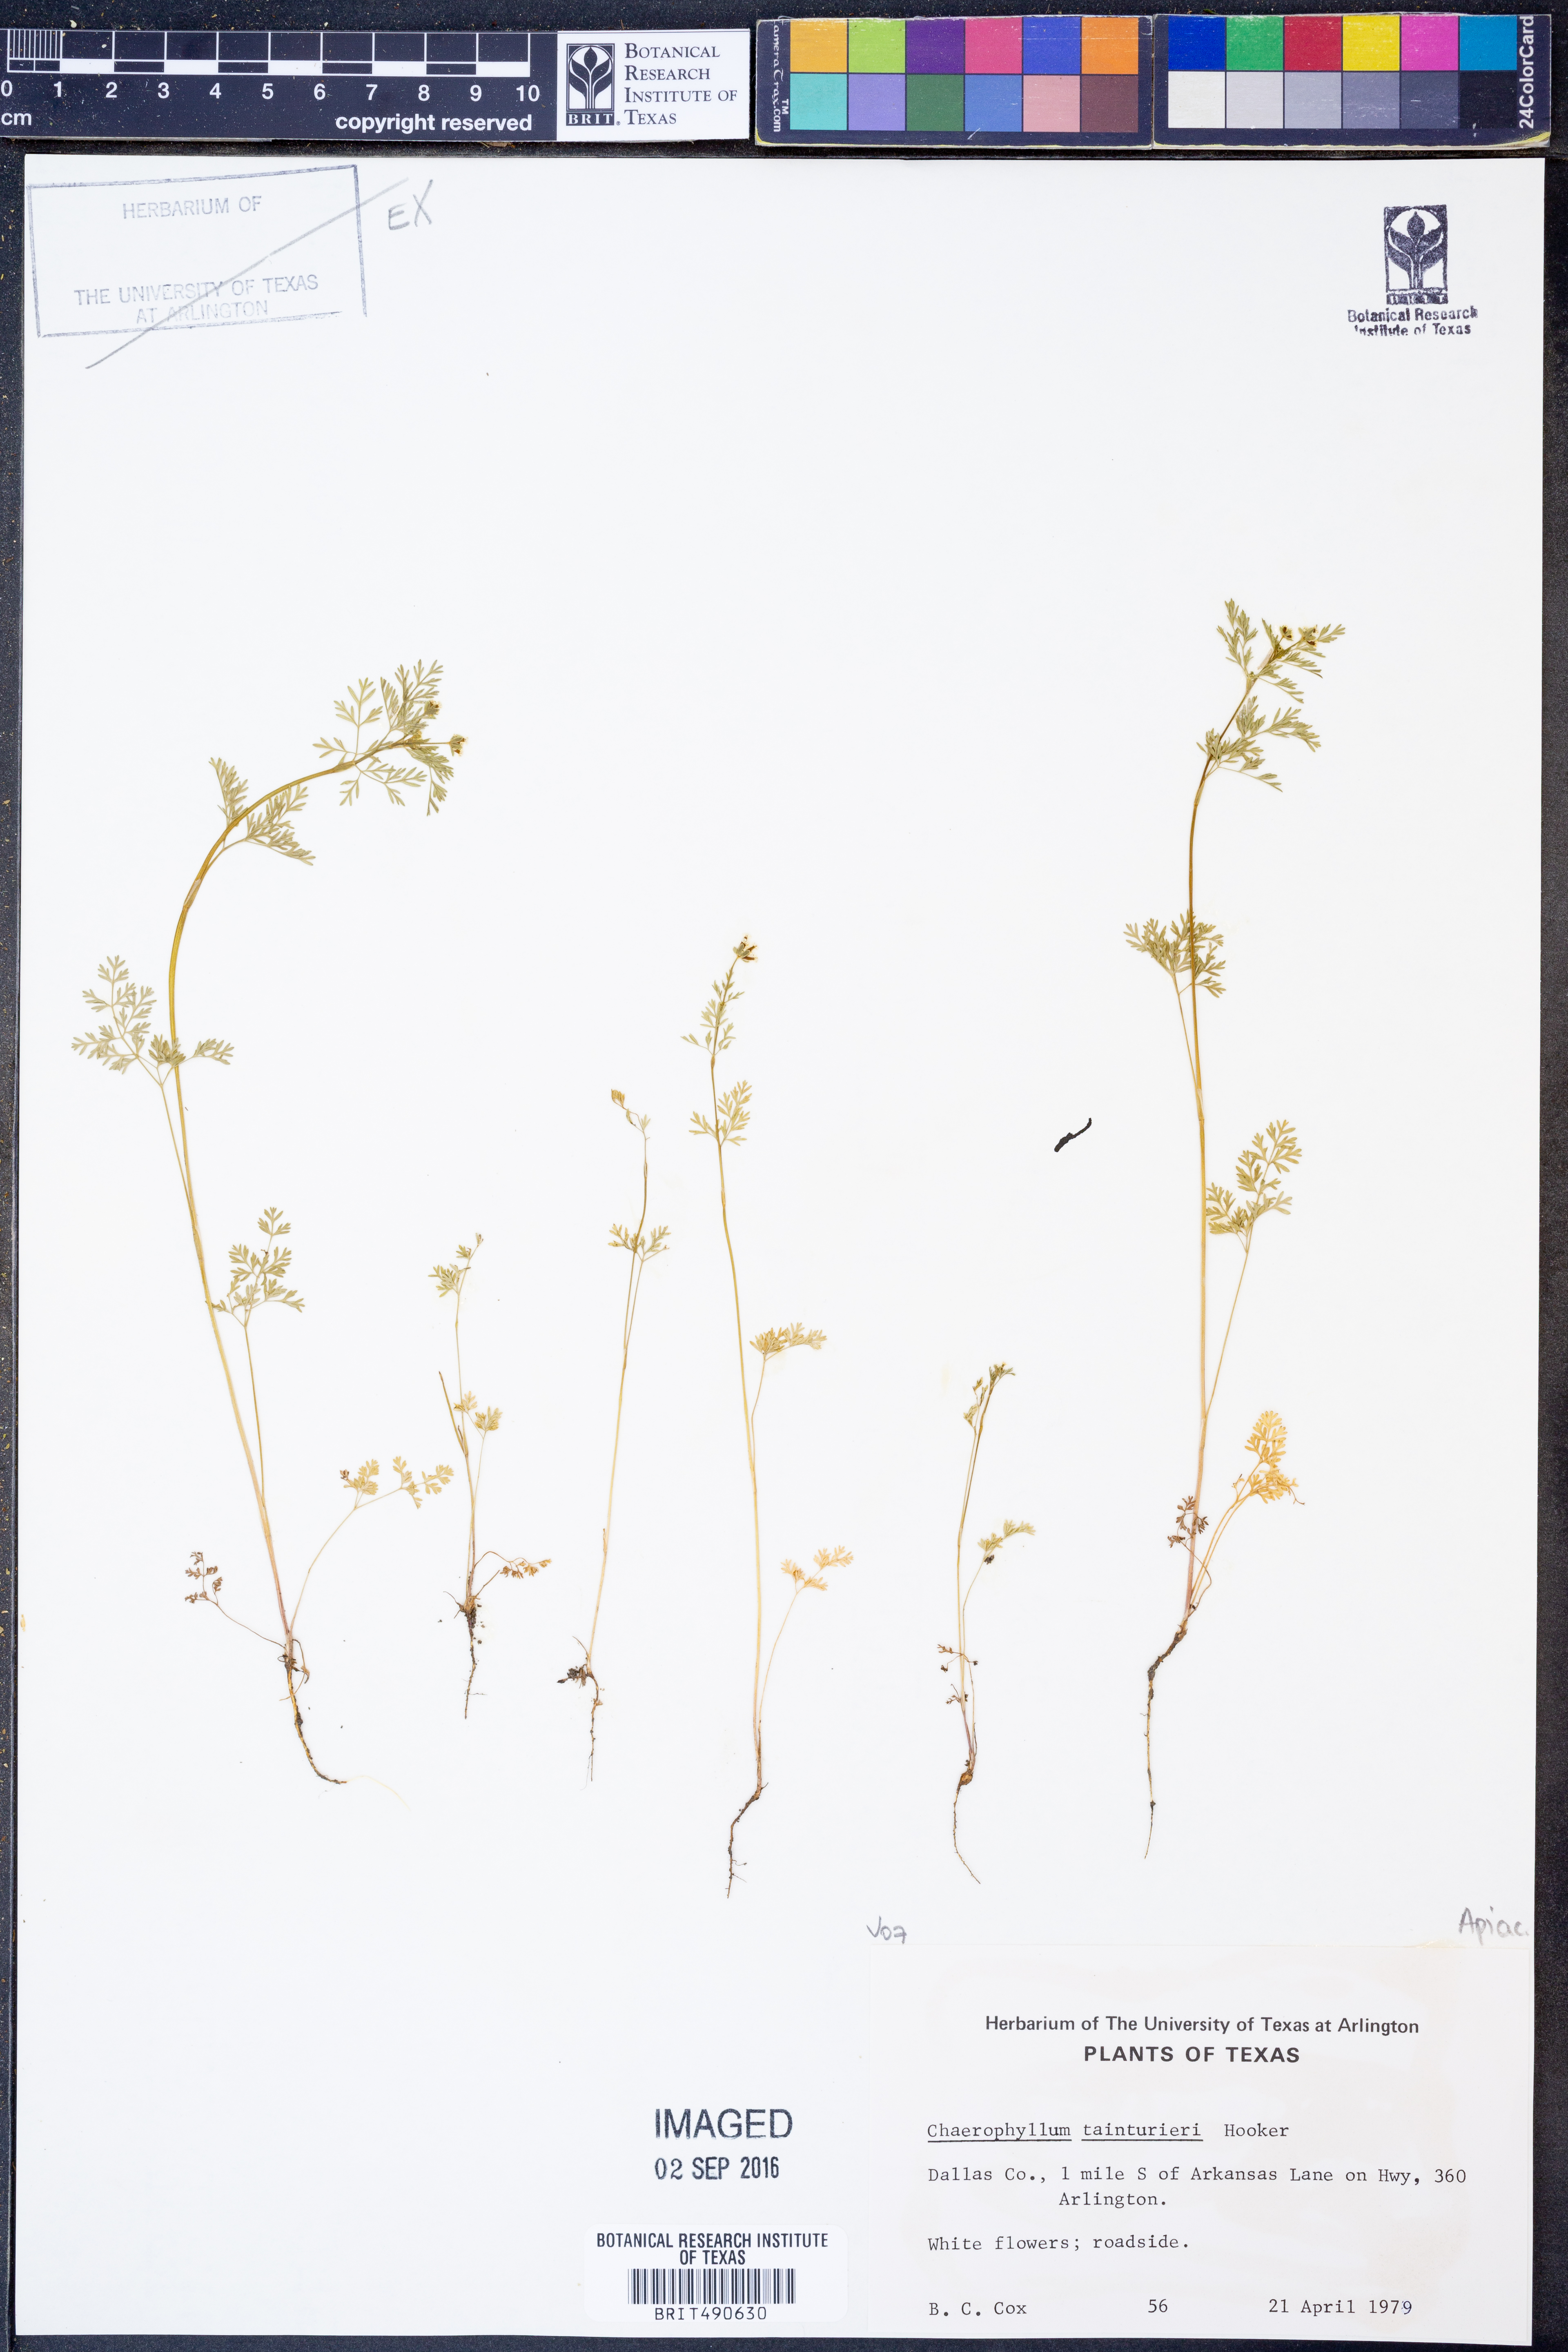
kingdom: Plantae
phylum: Tracheophyta
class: Magnoliopsida
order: Apiales
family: Apiaceae
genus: Chaerophyllum
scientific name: Chaerophyllum tainturieri
